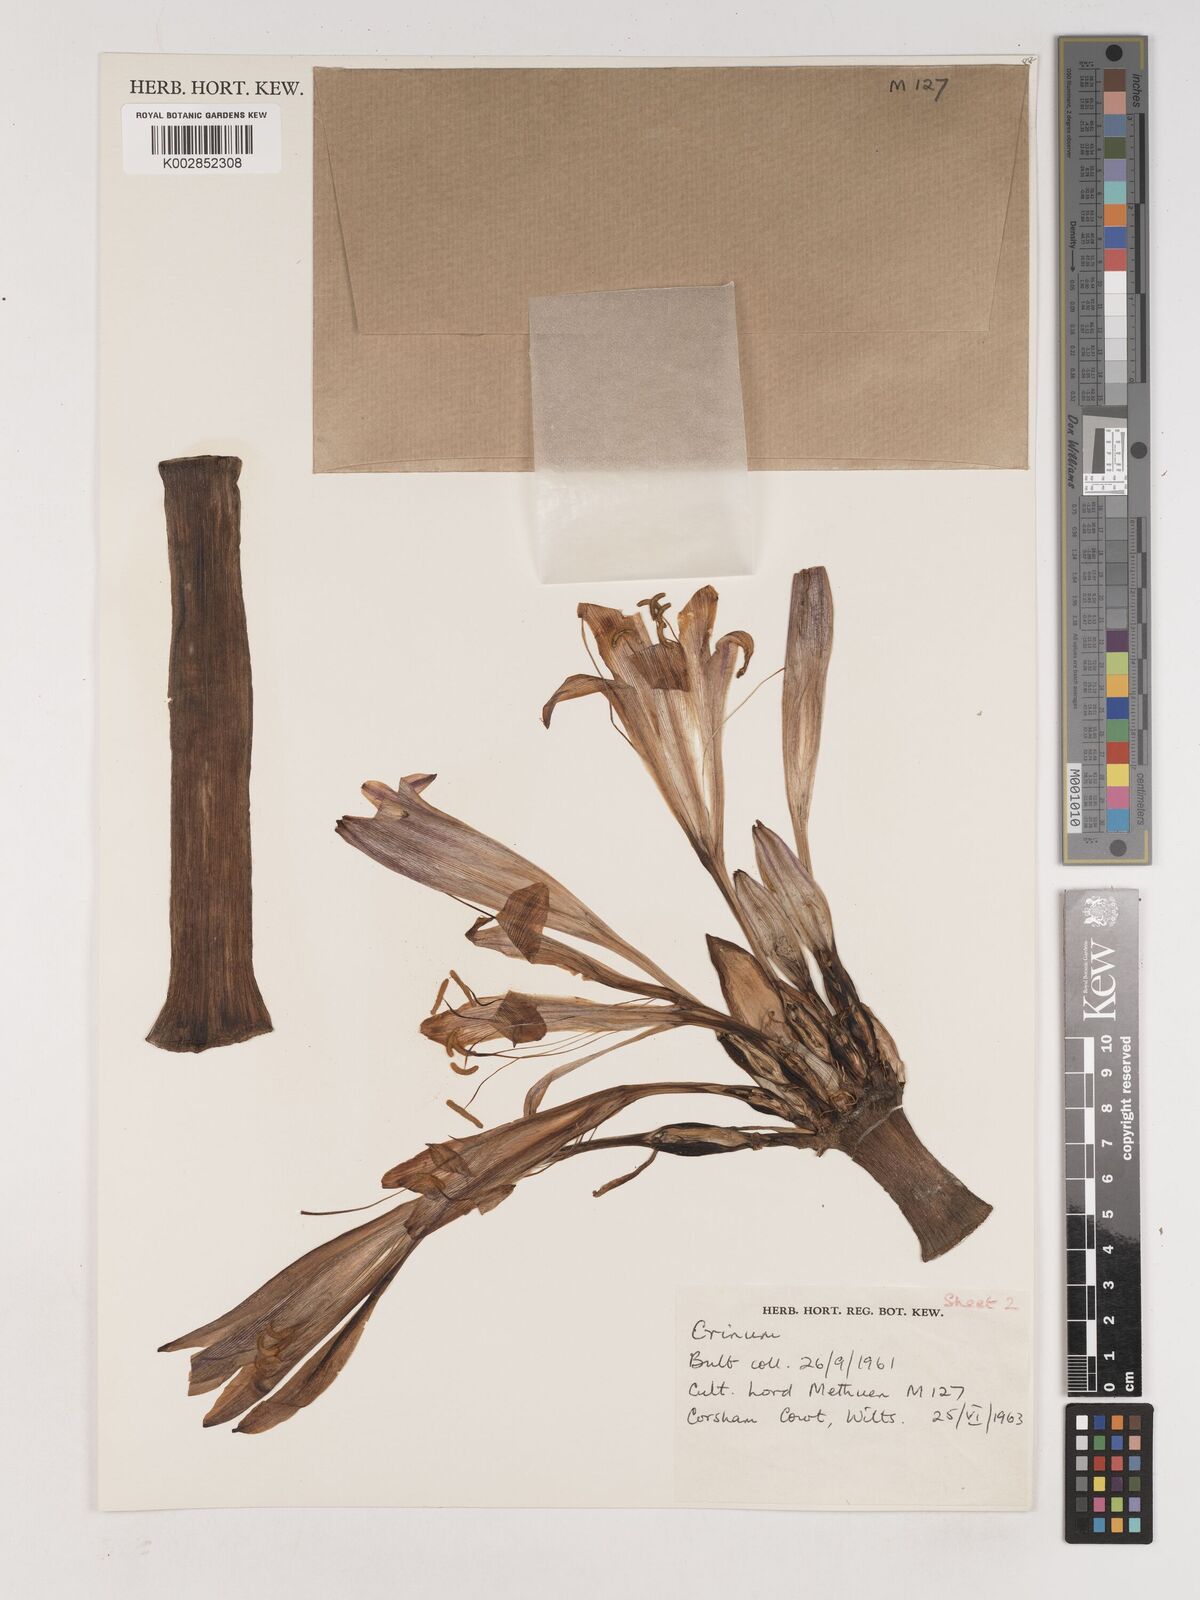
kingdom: Plantae
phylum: Tracheophyta
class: Liliopsida
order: Asparagales
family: Amaryllidaceae
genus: Crinum
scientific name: Crinum
